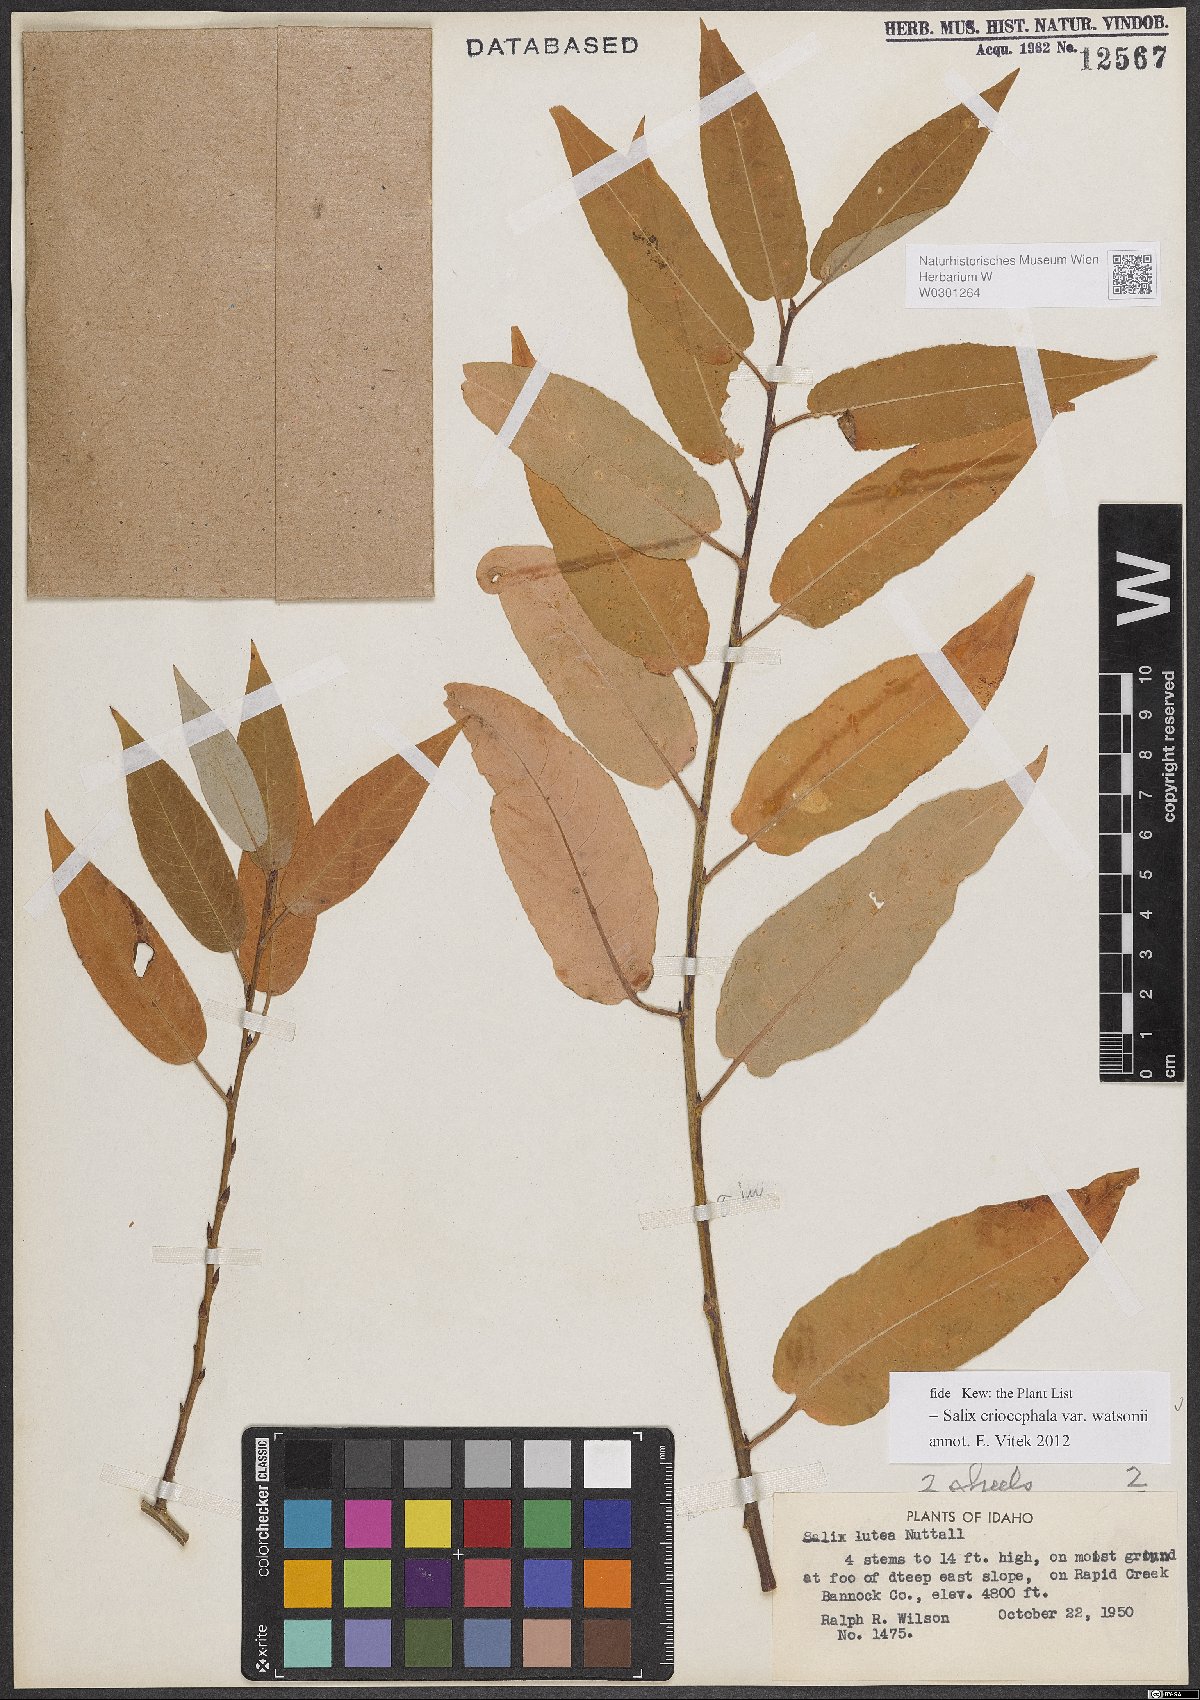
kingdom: Plantae
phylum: Tracheophyta
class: Magnoliopsida
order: Malpighiales
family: Salicaceae
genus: Salix
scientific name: Salix lutea
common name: Yellow willow
